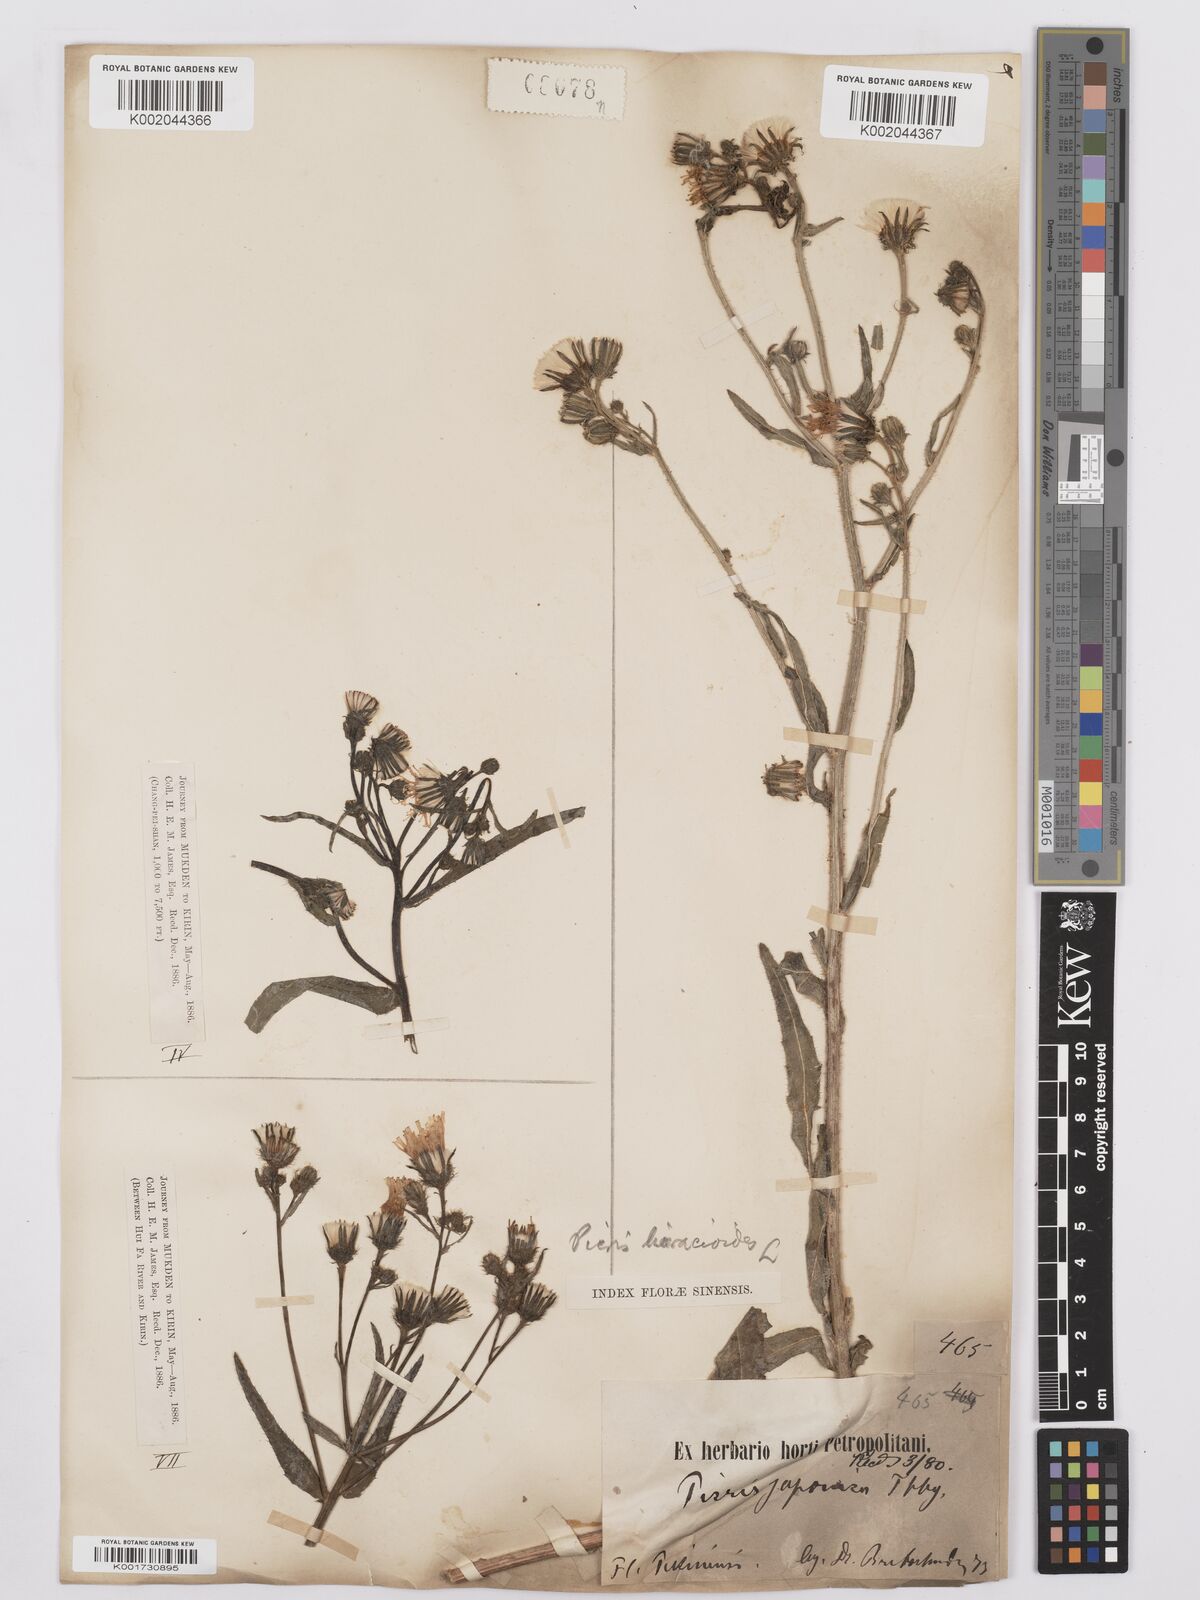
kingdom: Plantae
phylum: Tracheophyta
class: Magnoliopsida
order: Asterales
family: Asteraceae
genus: Picris
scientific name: Picris hieracioides
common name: Hawkweed oxtongue
